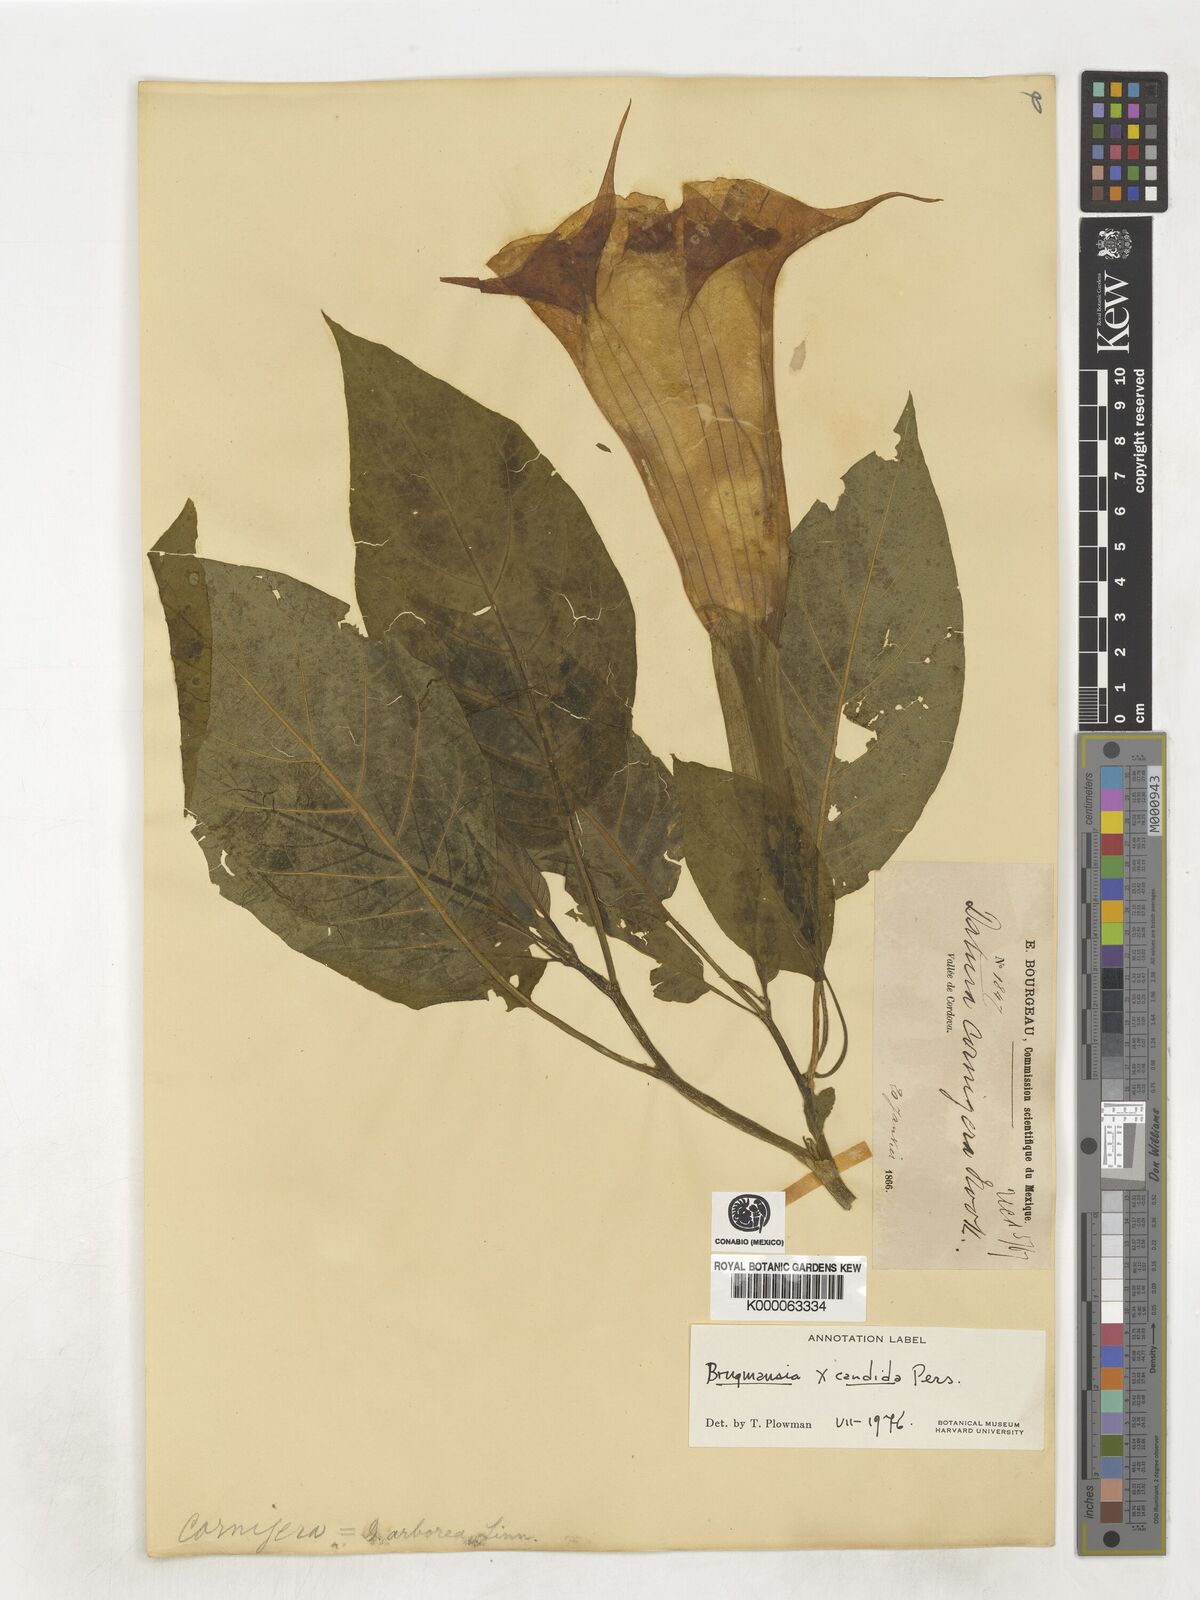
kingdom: Plantae
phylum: Tracheophyta
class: Magnoliopsida
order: Solanales
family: Solanaceae
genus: Brugmansia
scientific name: Brugmansia candida
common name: Angel's-trumpet
